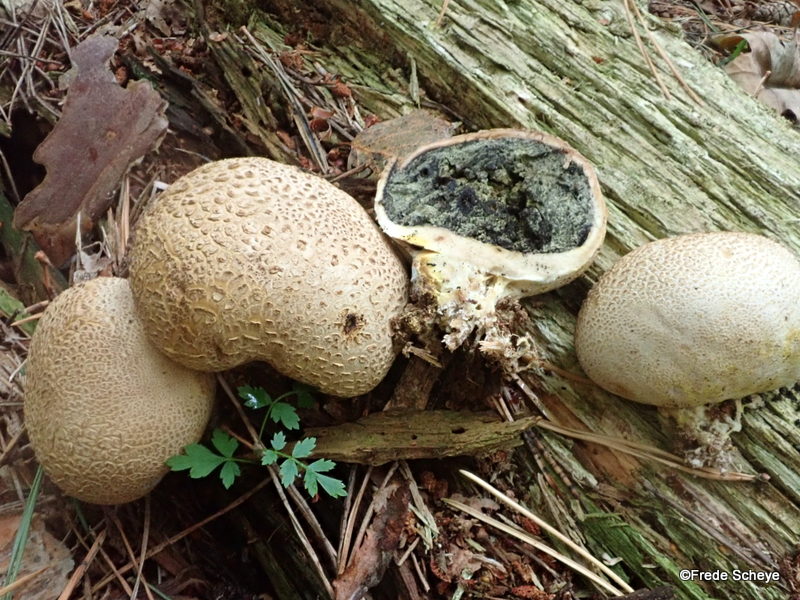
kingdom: Fungi
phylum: Basidiomycota
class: Agaricomycetes
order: Boletales
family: Sclerodermataceae
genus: Scleroderma
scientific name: Scleroderma citrinum
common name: almindelig bruskbold
